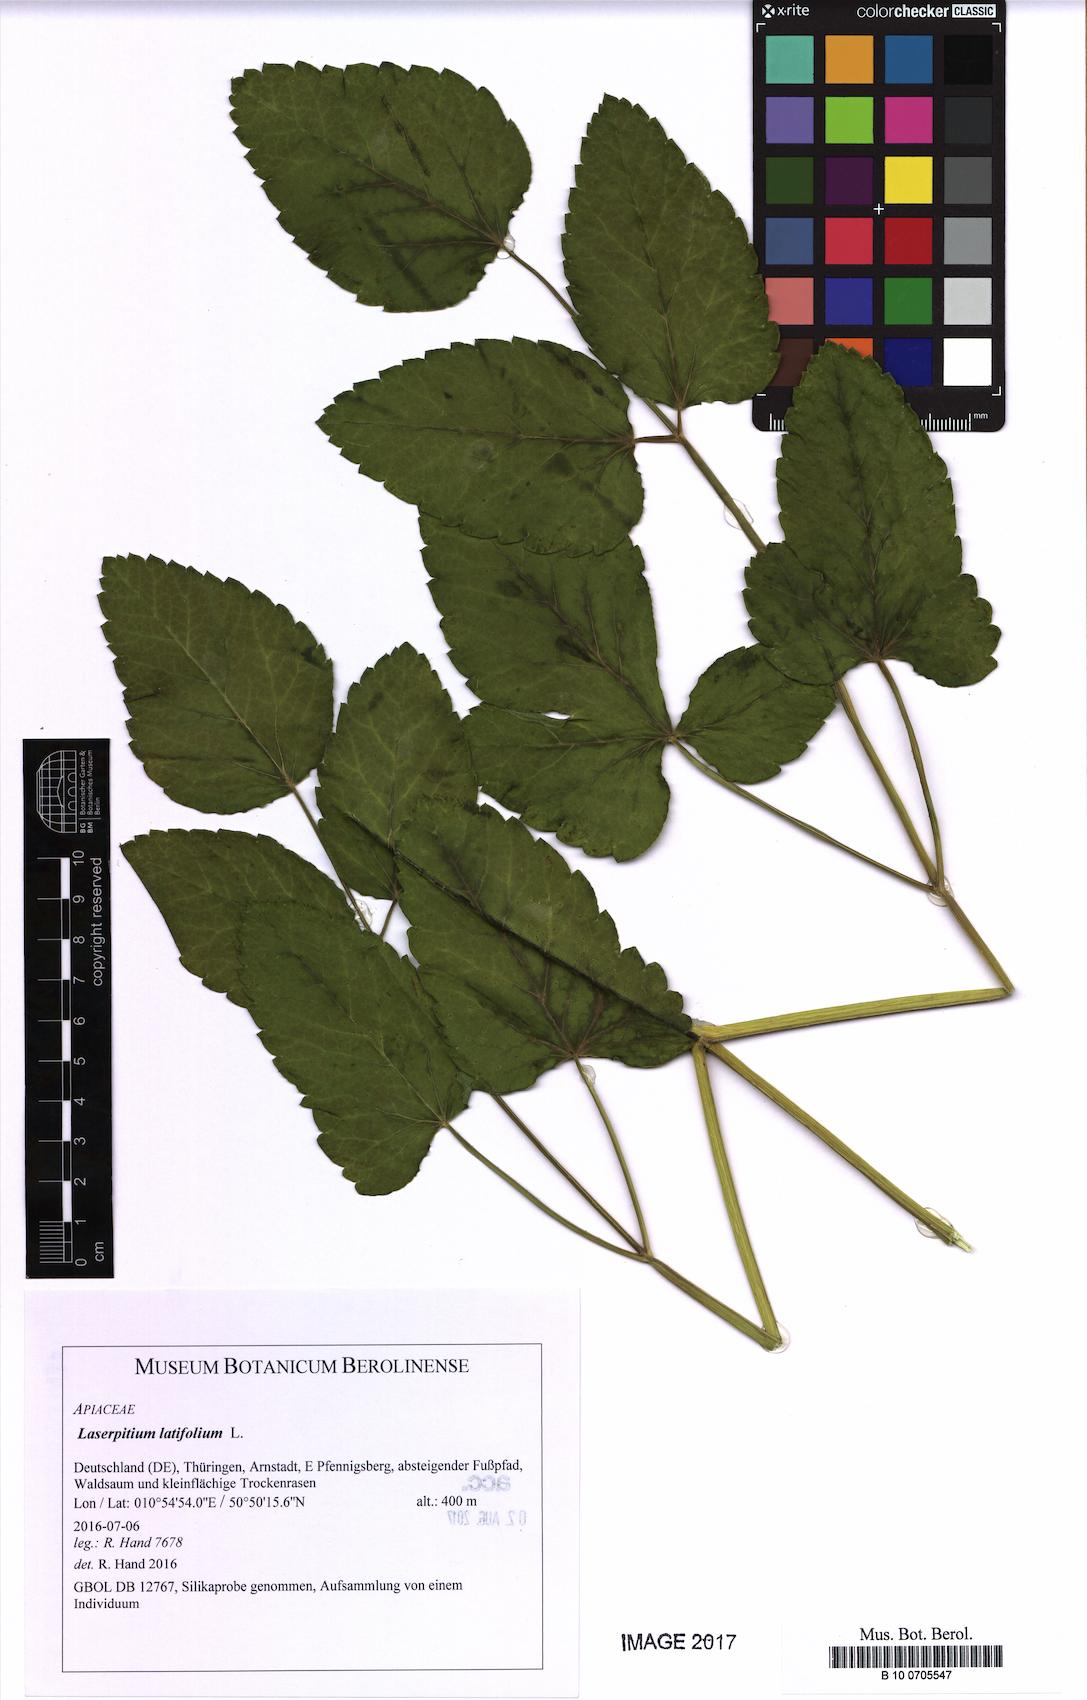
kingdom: Plantae
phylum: Tracheophyta
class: Magnoliopsida
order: Apiales
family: Apiaceae
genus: Laserpitium
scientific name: Laserpitium latifolium
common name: Broadleaf sermountain
